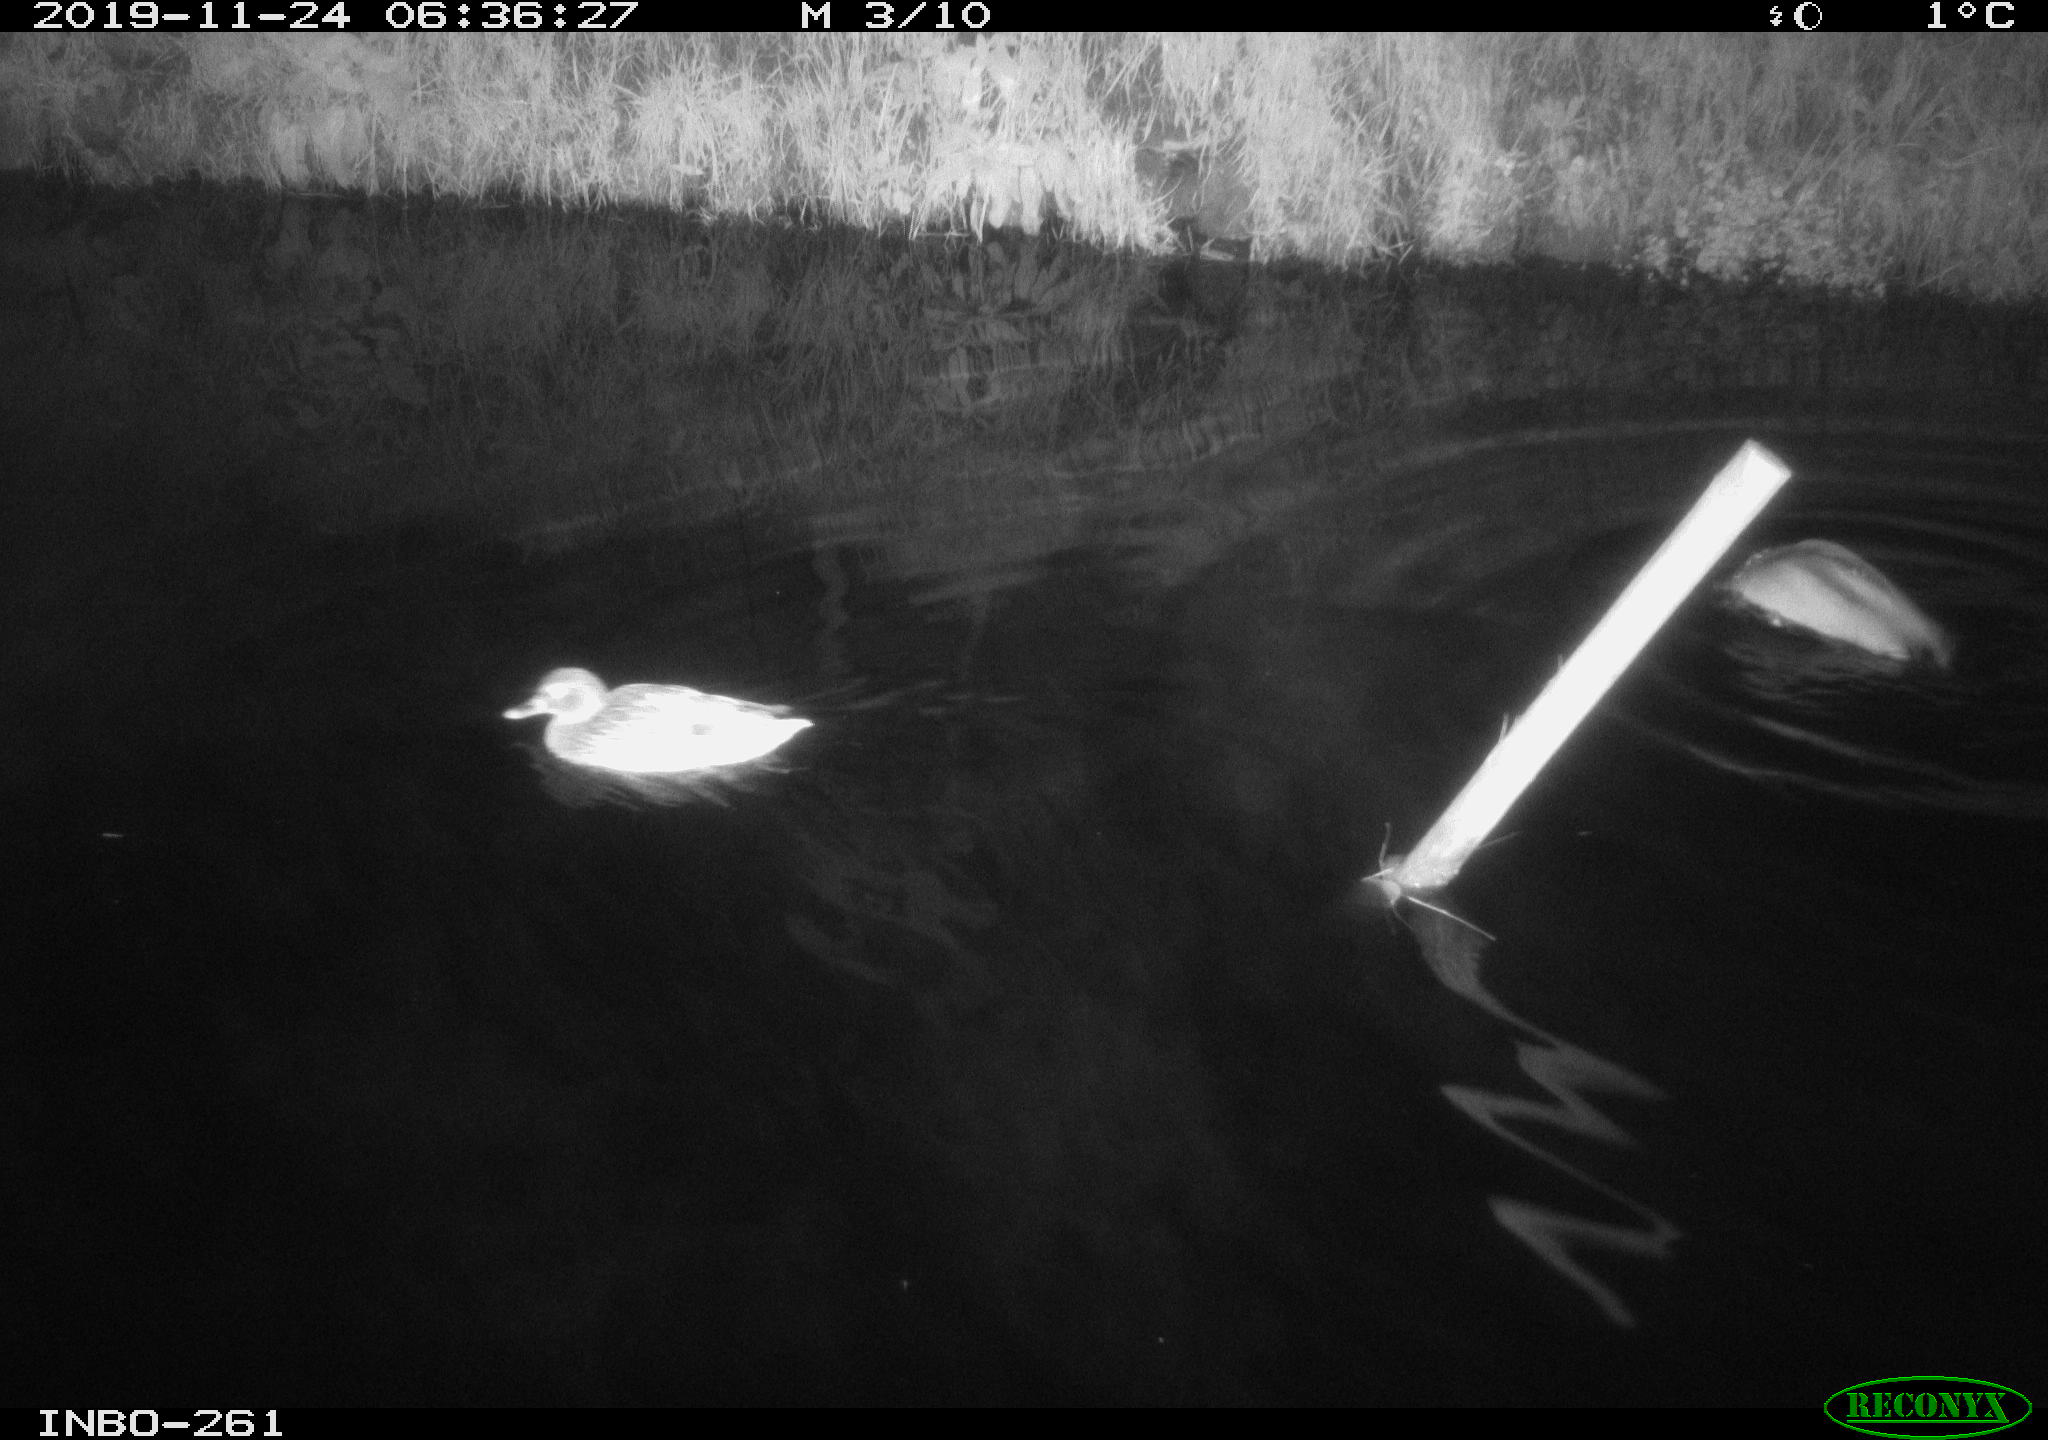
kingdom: Animalia
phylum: Chordata
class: Aves
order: Anseriformes
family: Anatidae
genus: Anas
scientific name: Anas platyrhynchos
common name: Mallard
